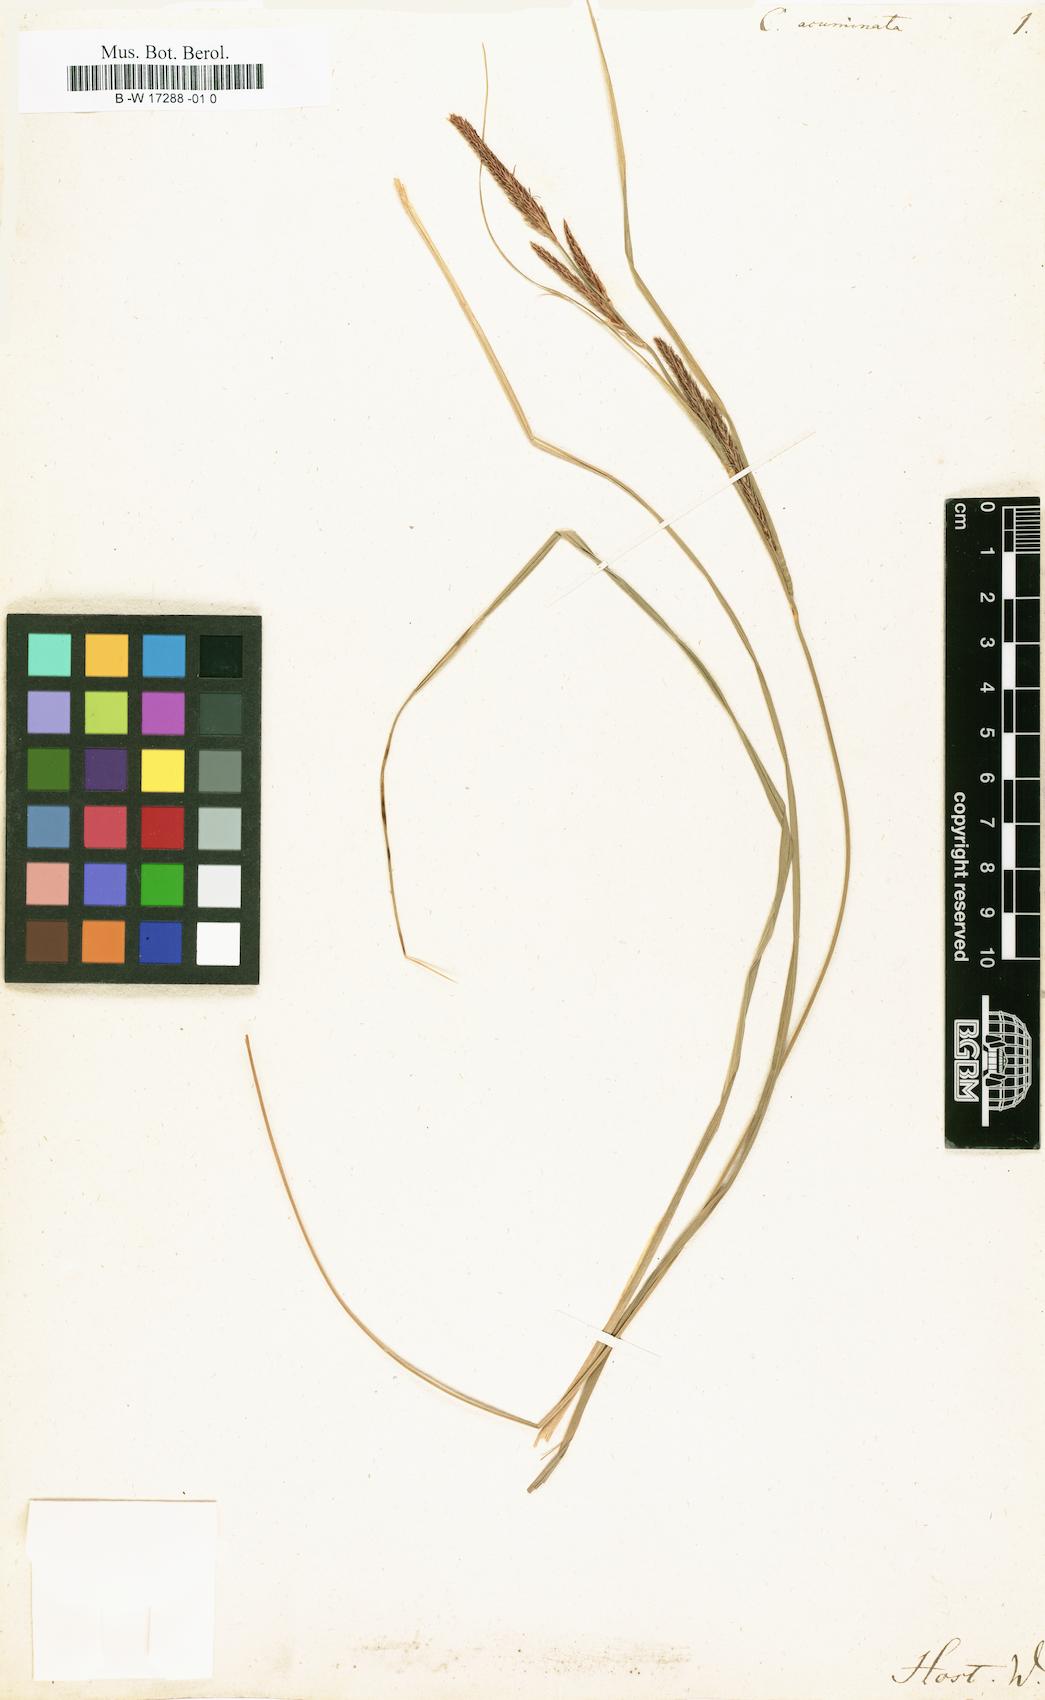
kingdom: Plantae
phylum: Tracheophyta
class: Liliopsida
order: Poales
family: Cyperaceae
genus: Carex
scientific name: Carex acuminata
